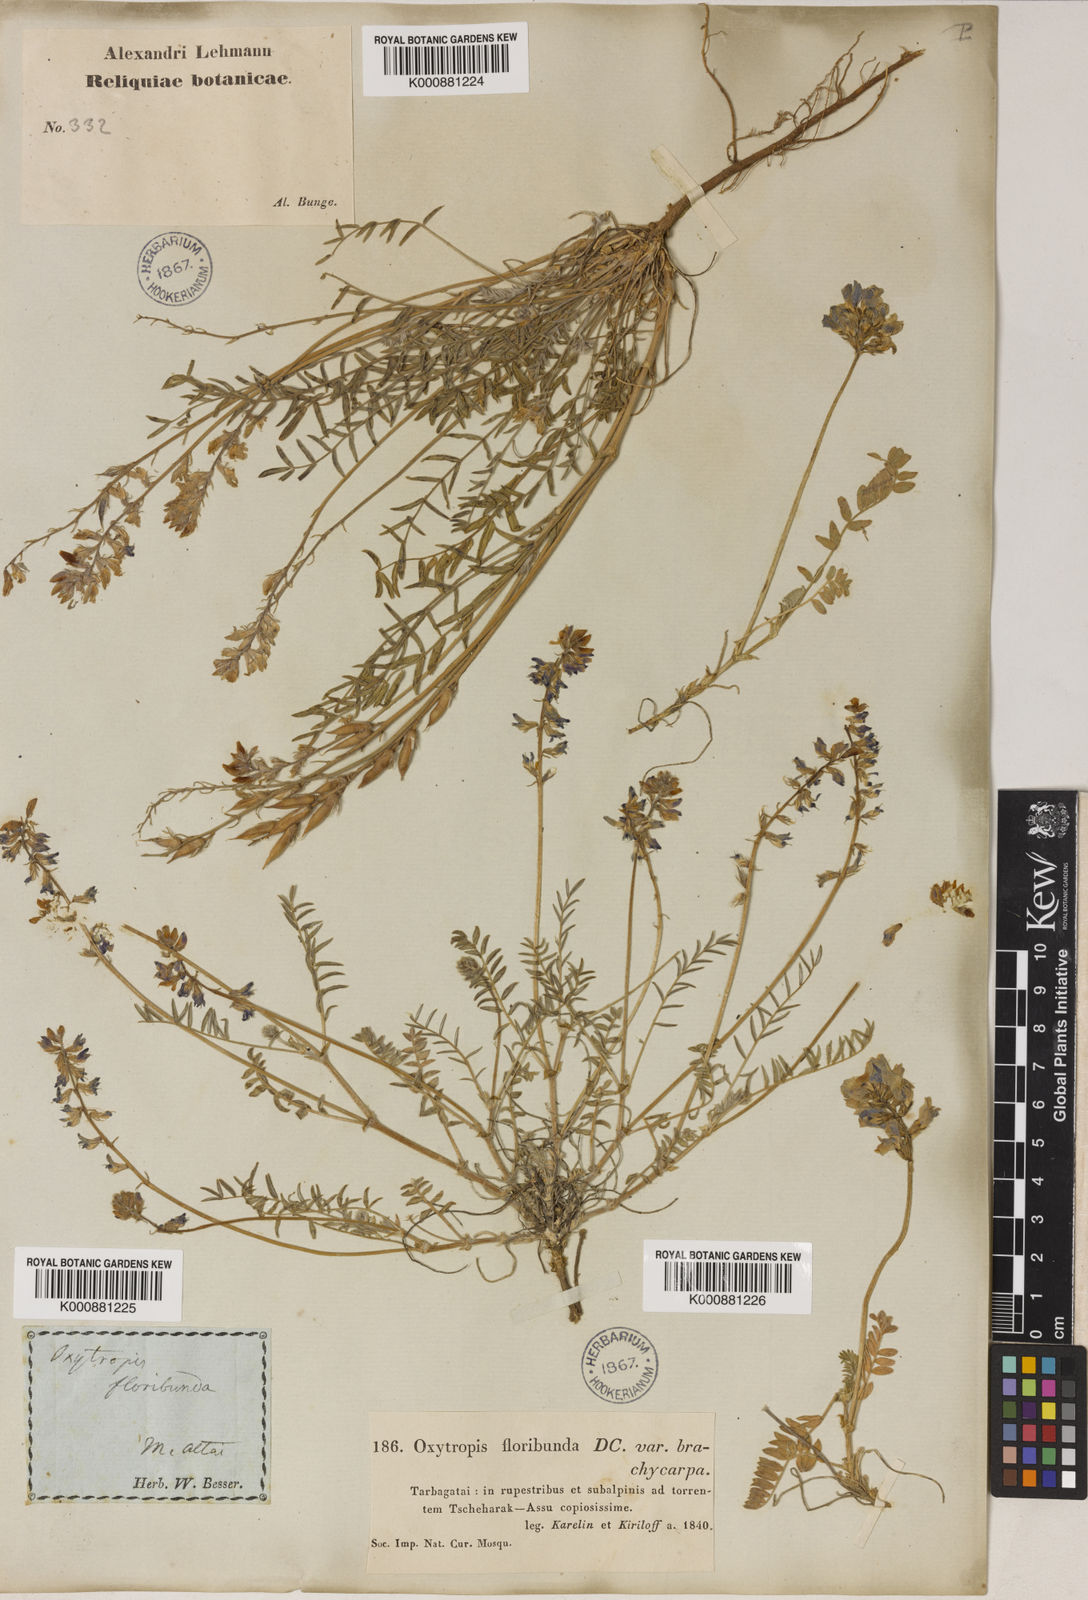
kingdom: Plantae
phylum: Tracheophyta
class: Magnoliopsida
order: Fabales
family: Fabaceae
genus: Oxytropis
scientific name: Oxytropis floribunda
